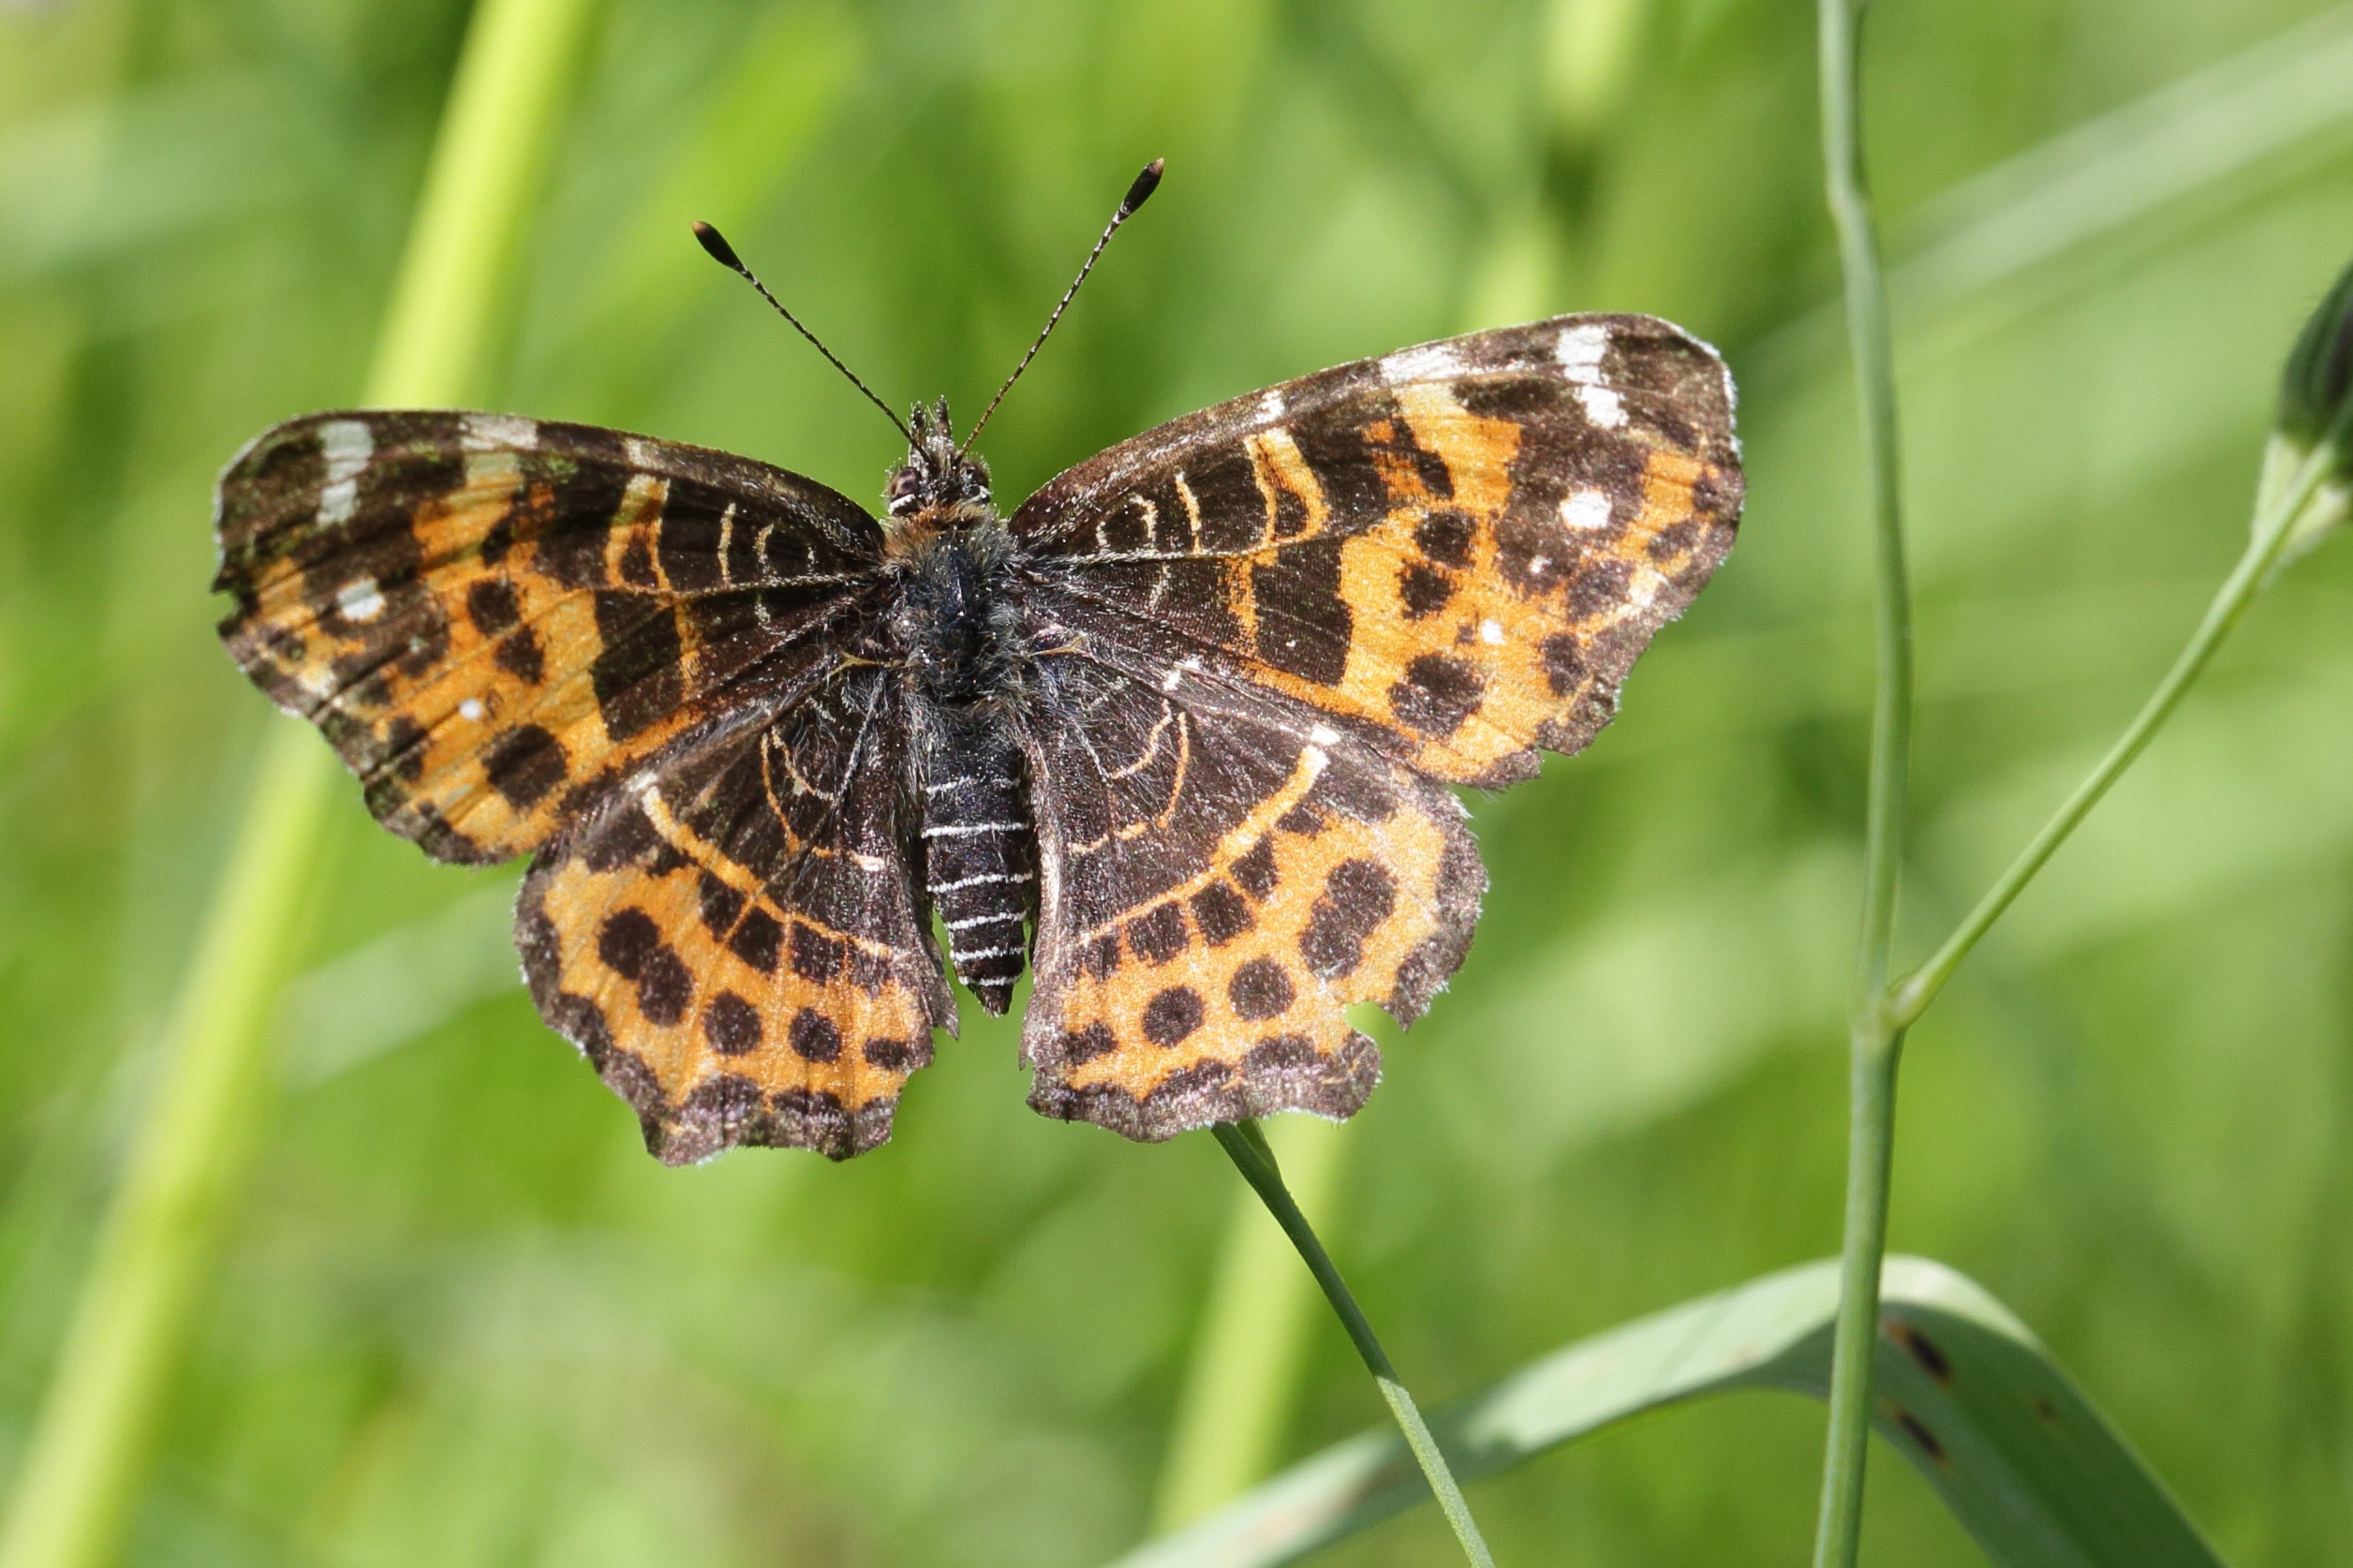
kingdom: Animalia
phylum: Arthropoda
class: Insecta
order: Lepidoptera
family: Nymphalidae
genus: Araschnia
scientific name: Araschnia levana
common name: Nældesommerfugl
